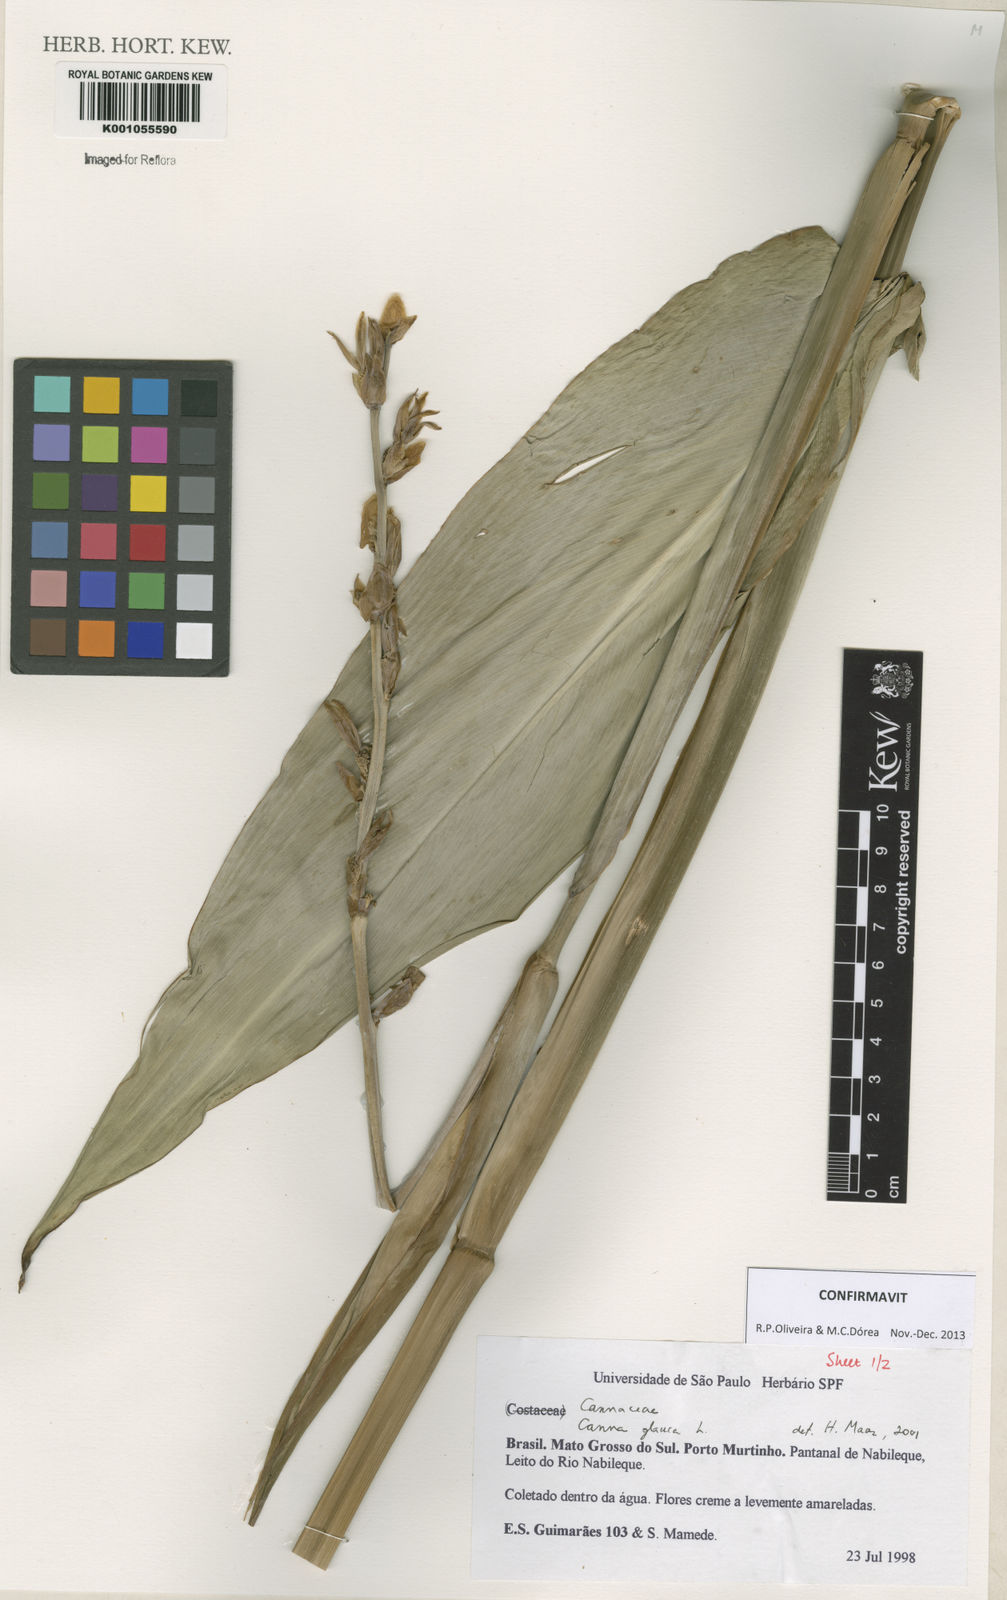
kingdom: Plantae
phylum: Tracheophyta
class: Liliopsida
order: Zingiberales
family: Cannaceae
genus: Canna
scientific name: Canna glauca
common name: Louisiana canna
